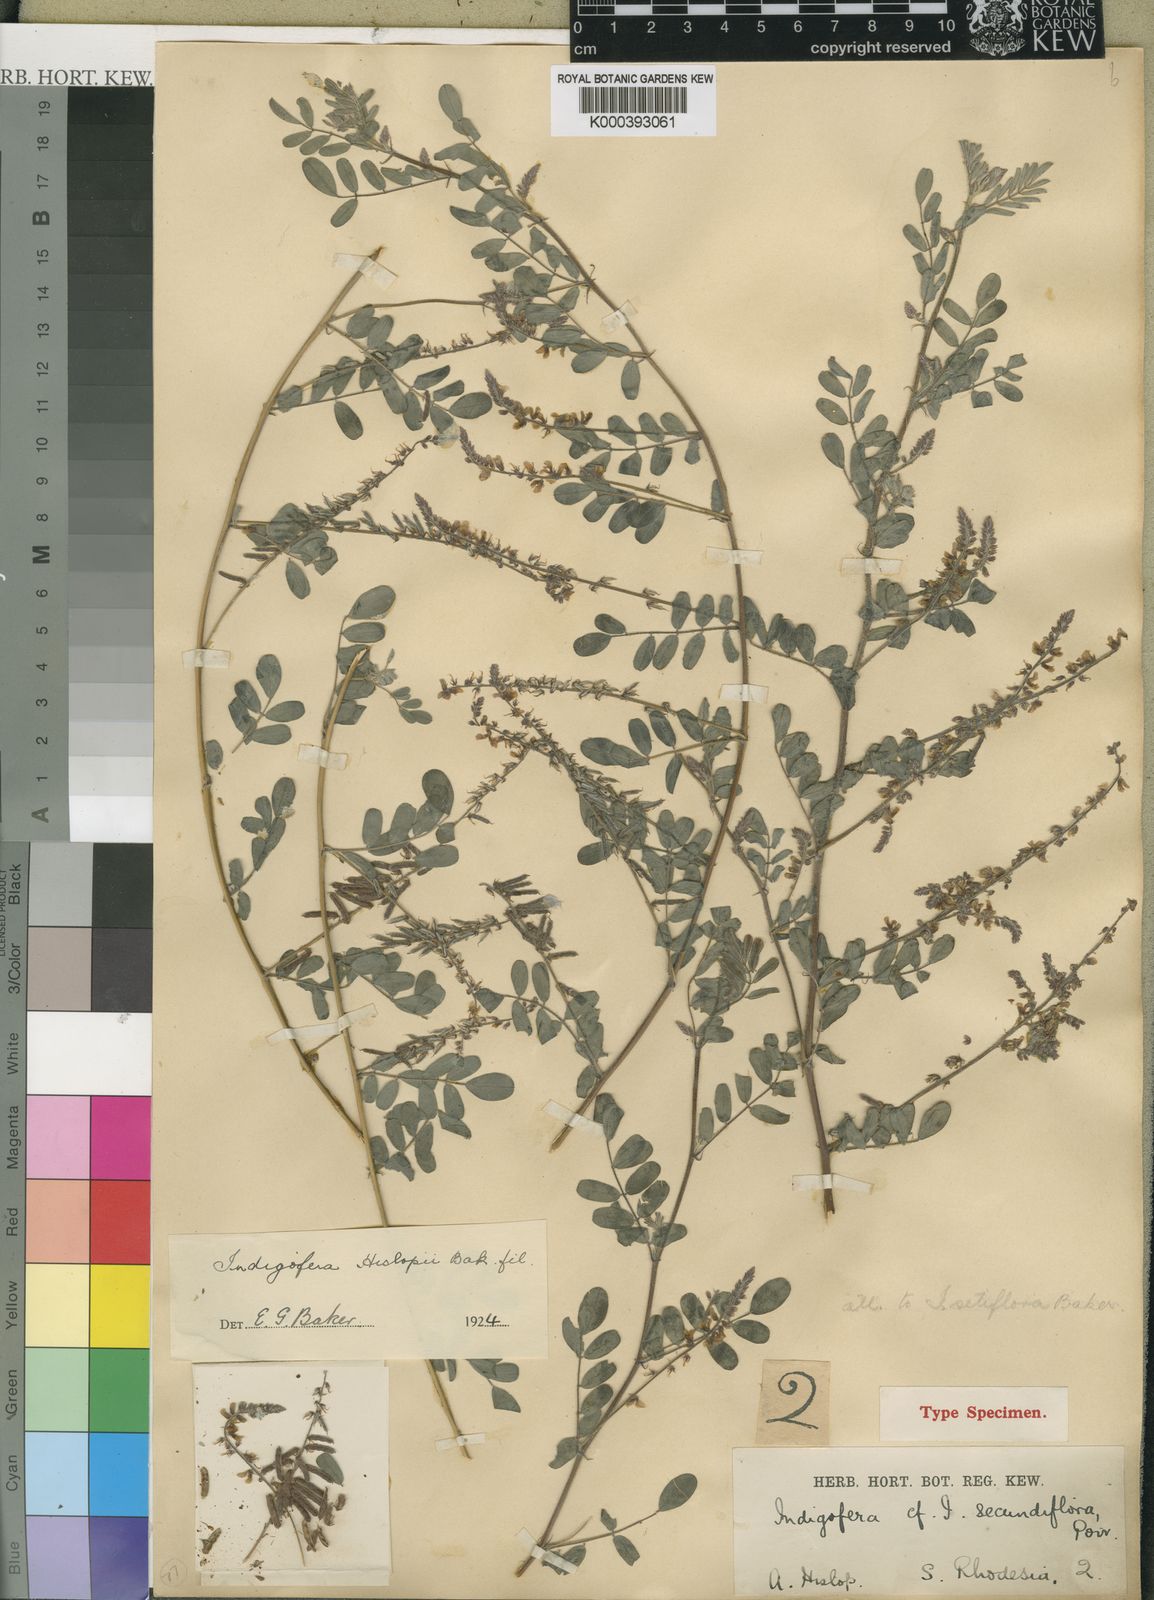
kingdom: Plantae
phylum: Tracheophyta
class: Magnoliopsida
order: Fabales
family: Fabaceae
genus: Indigofera
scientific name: Indigofera vicioides
